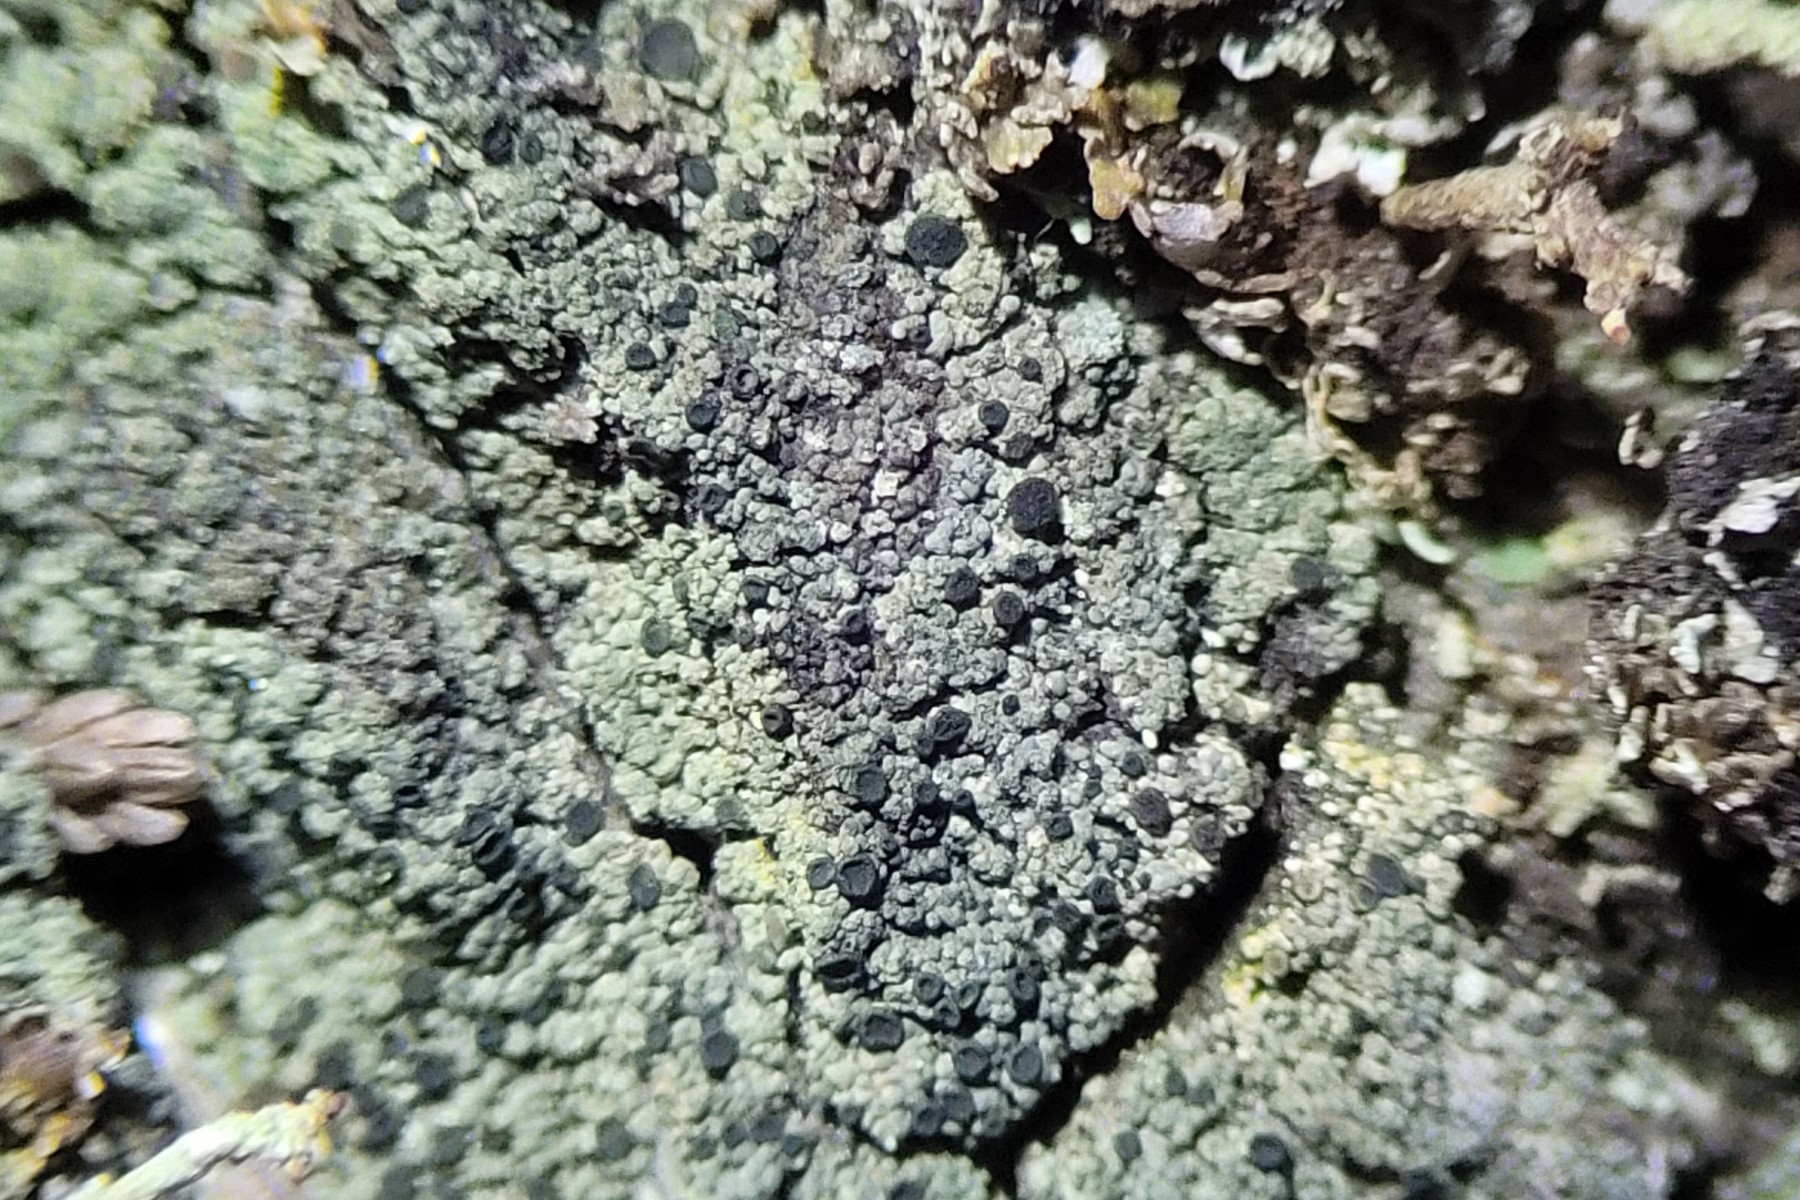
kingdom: Fungi
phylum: Ascomycota
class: Lecanoromycetes
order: Baeomycetales
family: Trapeliaceae
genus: Placynthiella
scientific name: Placynthiella uliginosa
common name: tørve-skivelav
